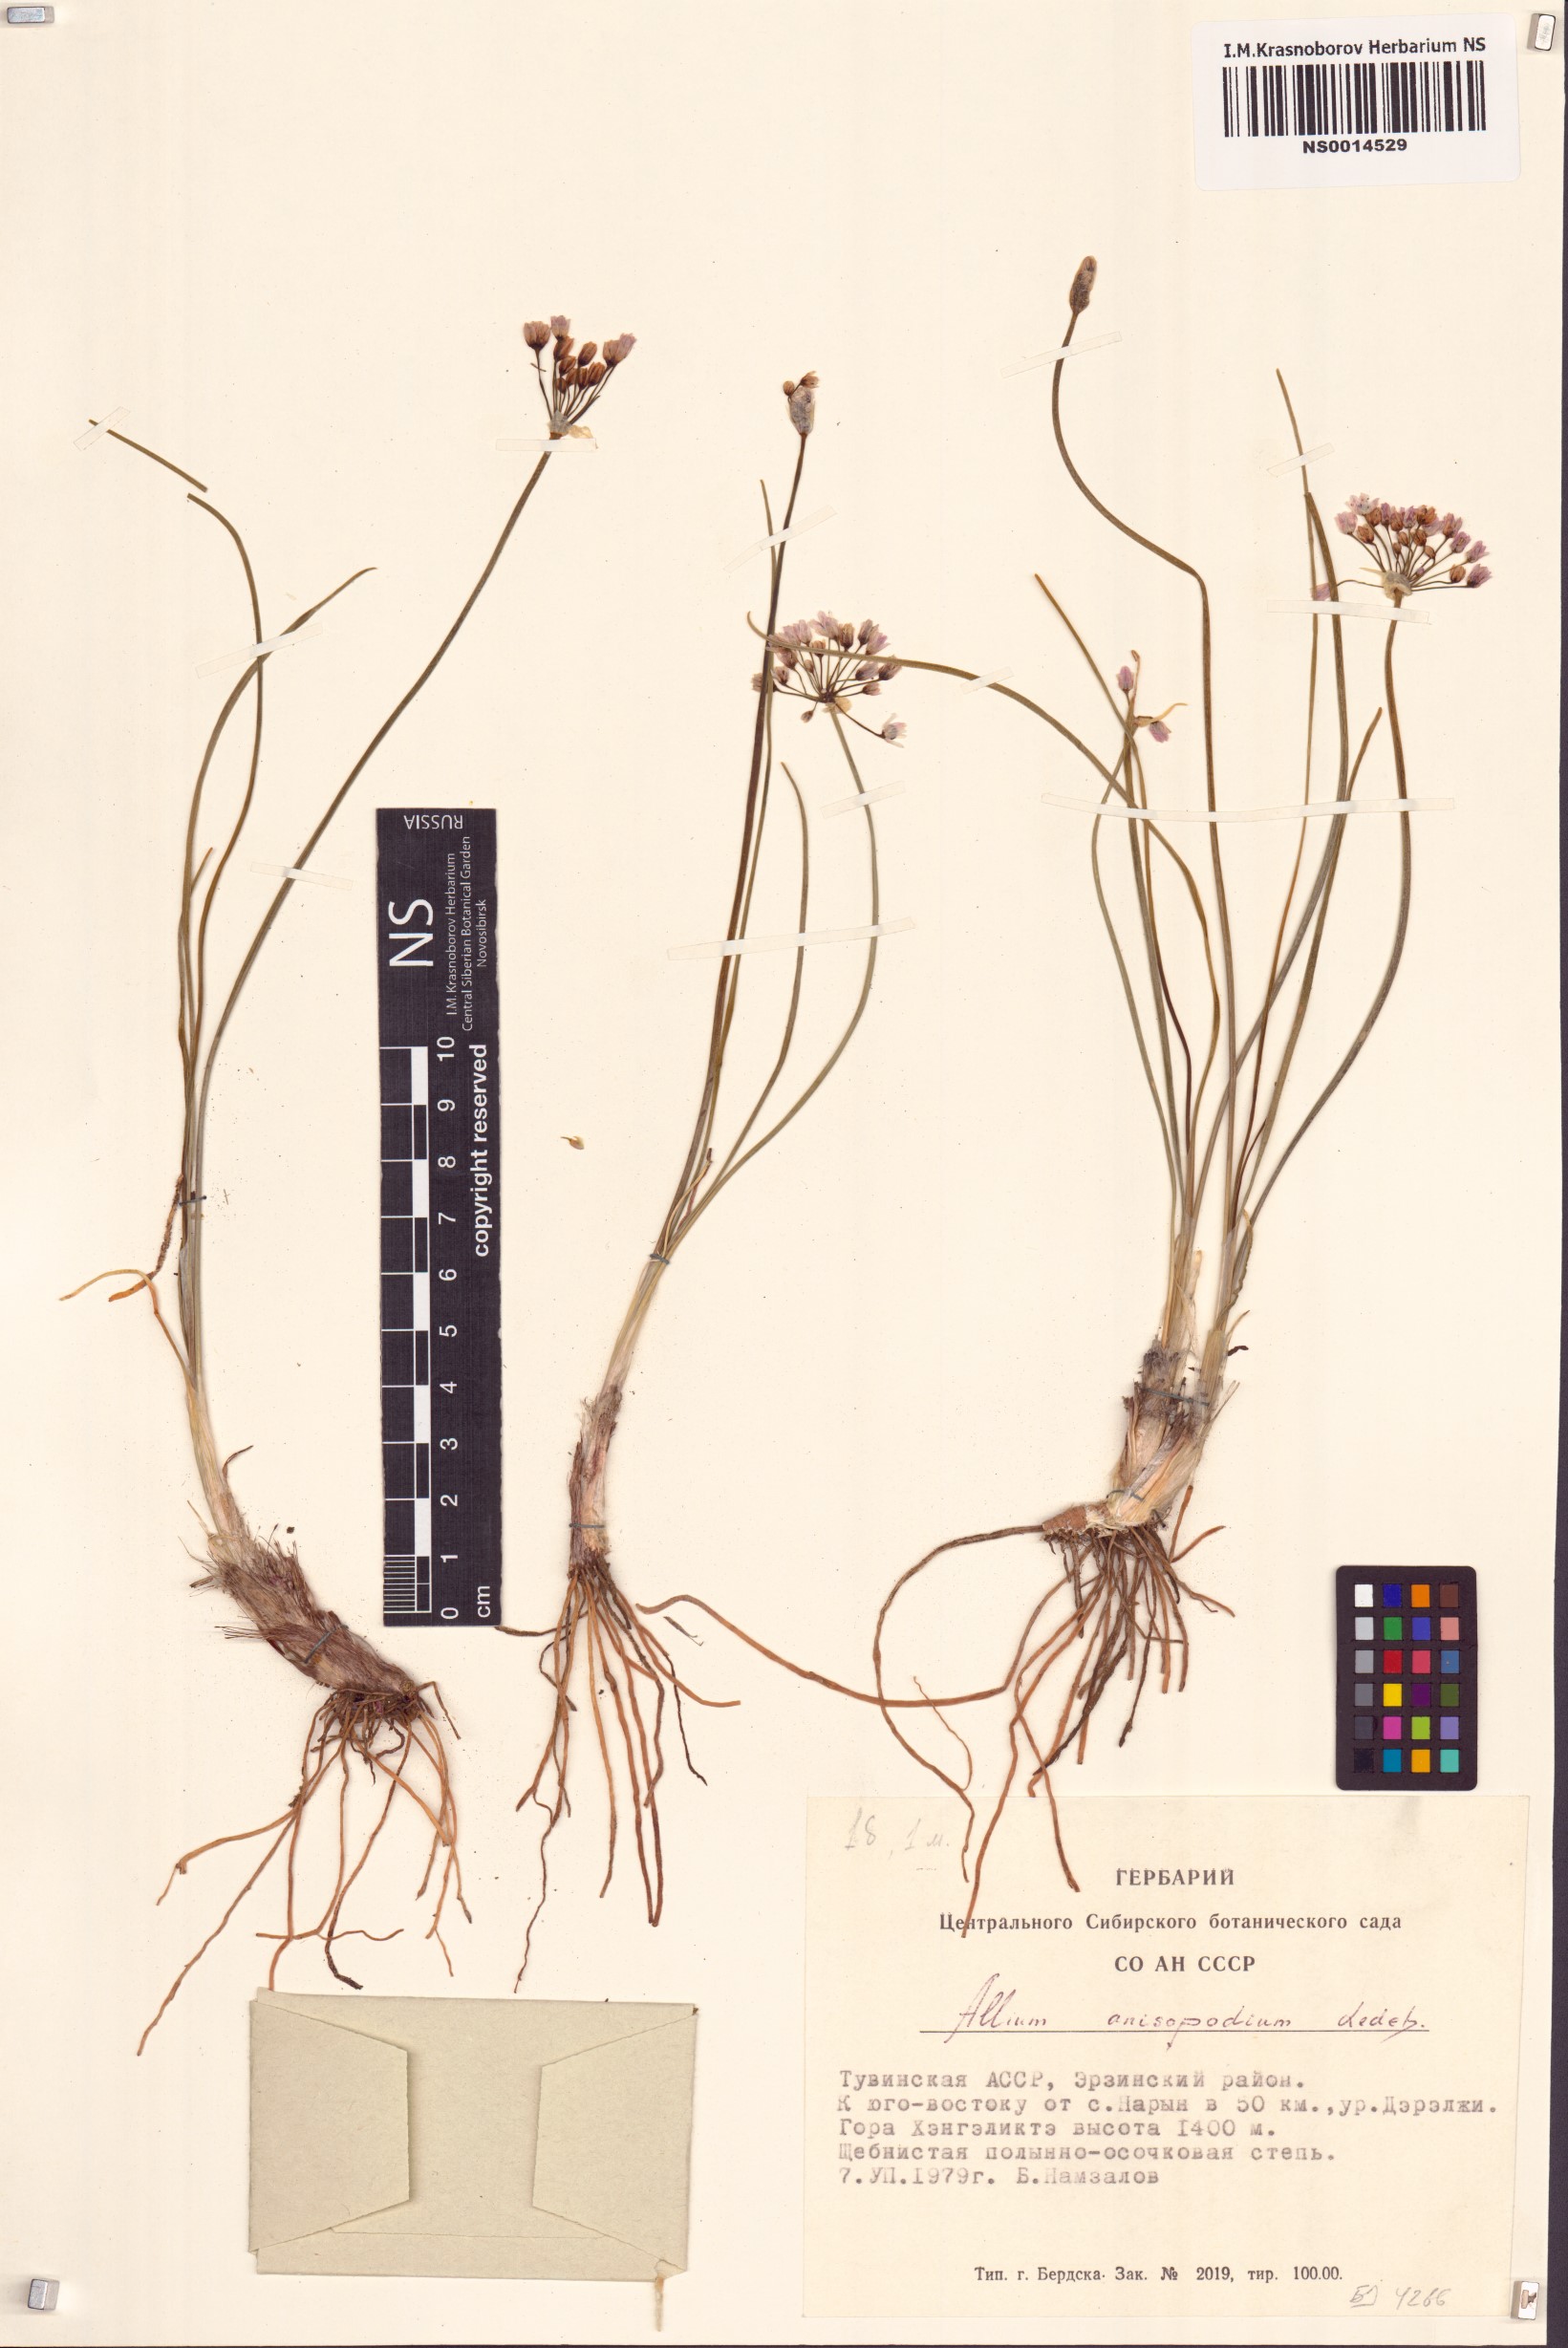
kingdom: Plantae
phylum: Tracheophyta
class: Liliopsida
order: Asparagales
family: Amaryllidaceae
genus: Allium
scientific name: Allium anisopodium
